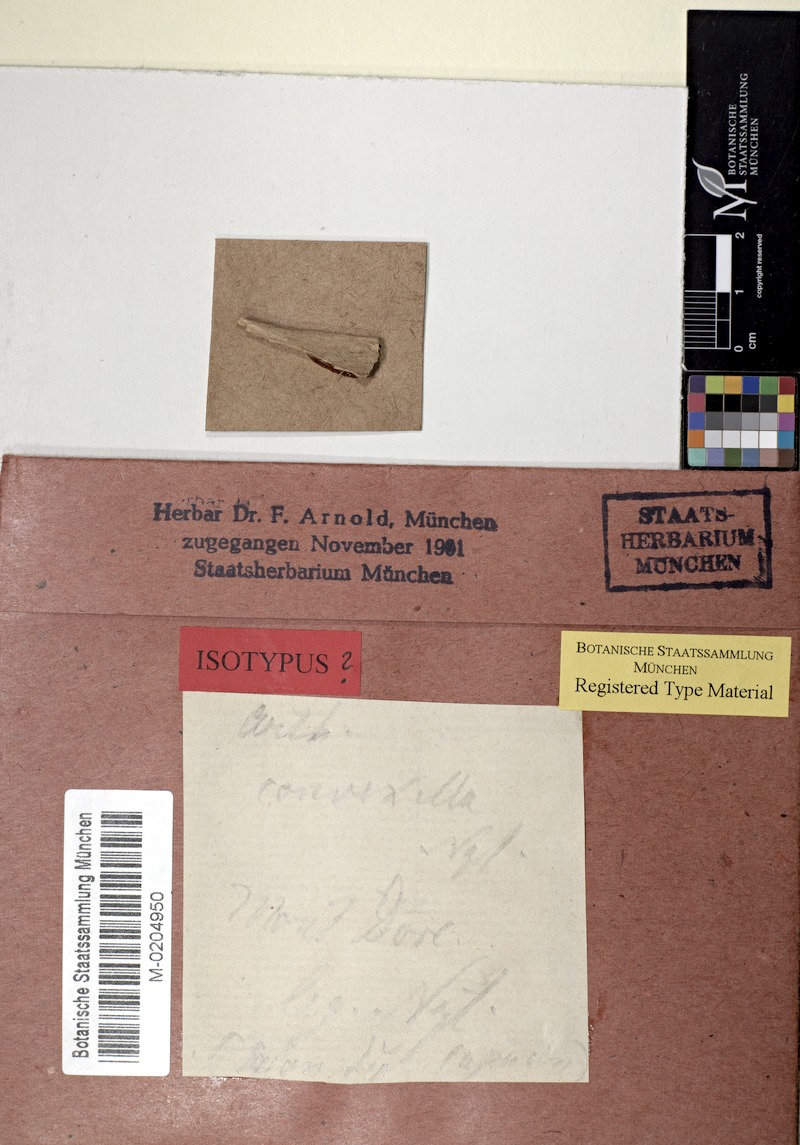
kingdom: Fungi
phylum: Ascomycota
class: Arthoniomycetes
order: Arthoniales
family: Arthoniaceae
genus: Arthonia
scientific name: Arthonia bueriana
